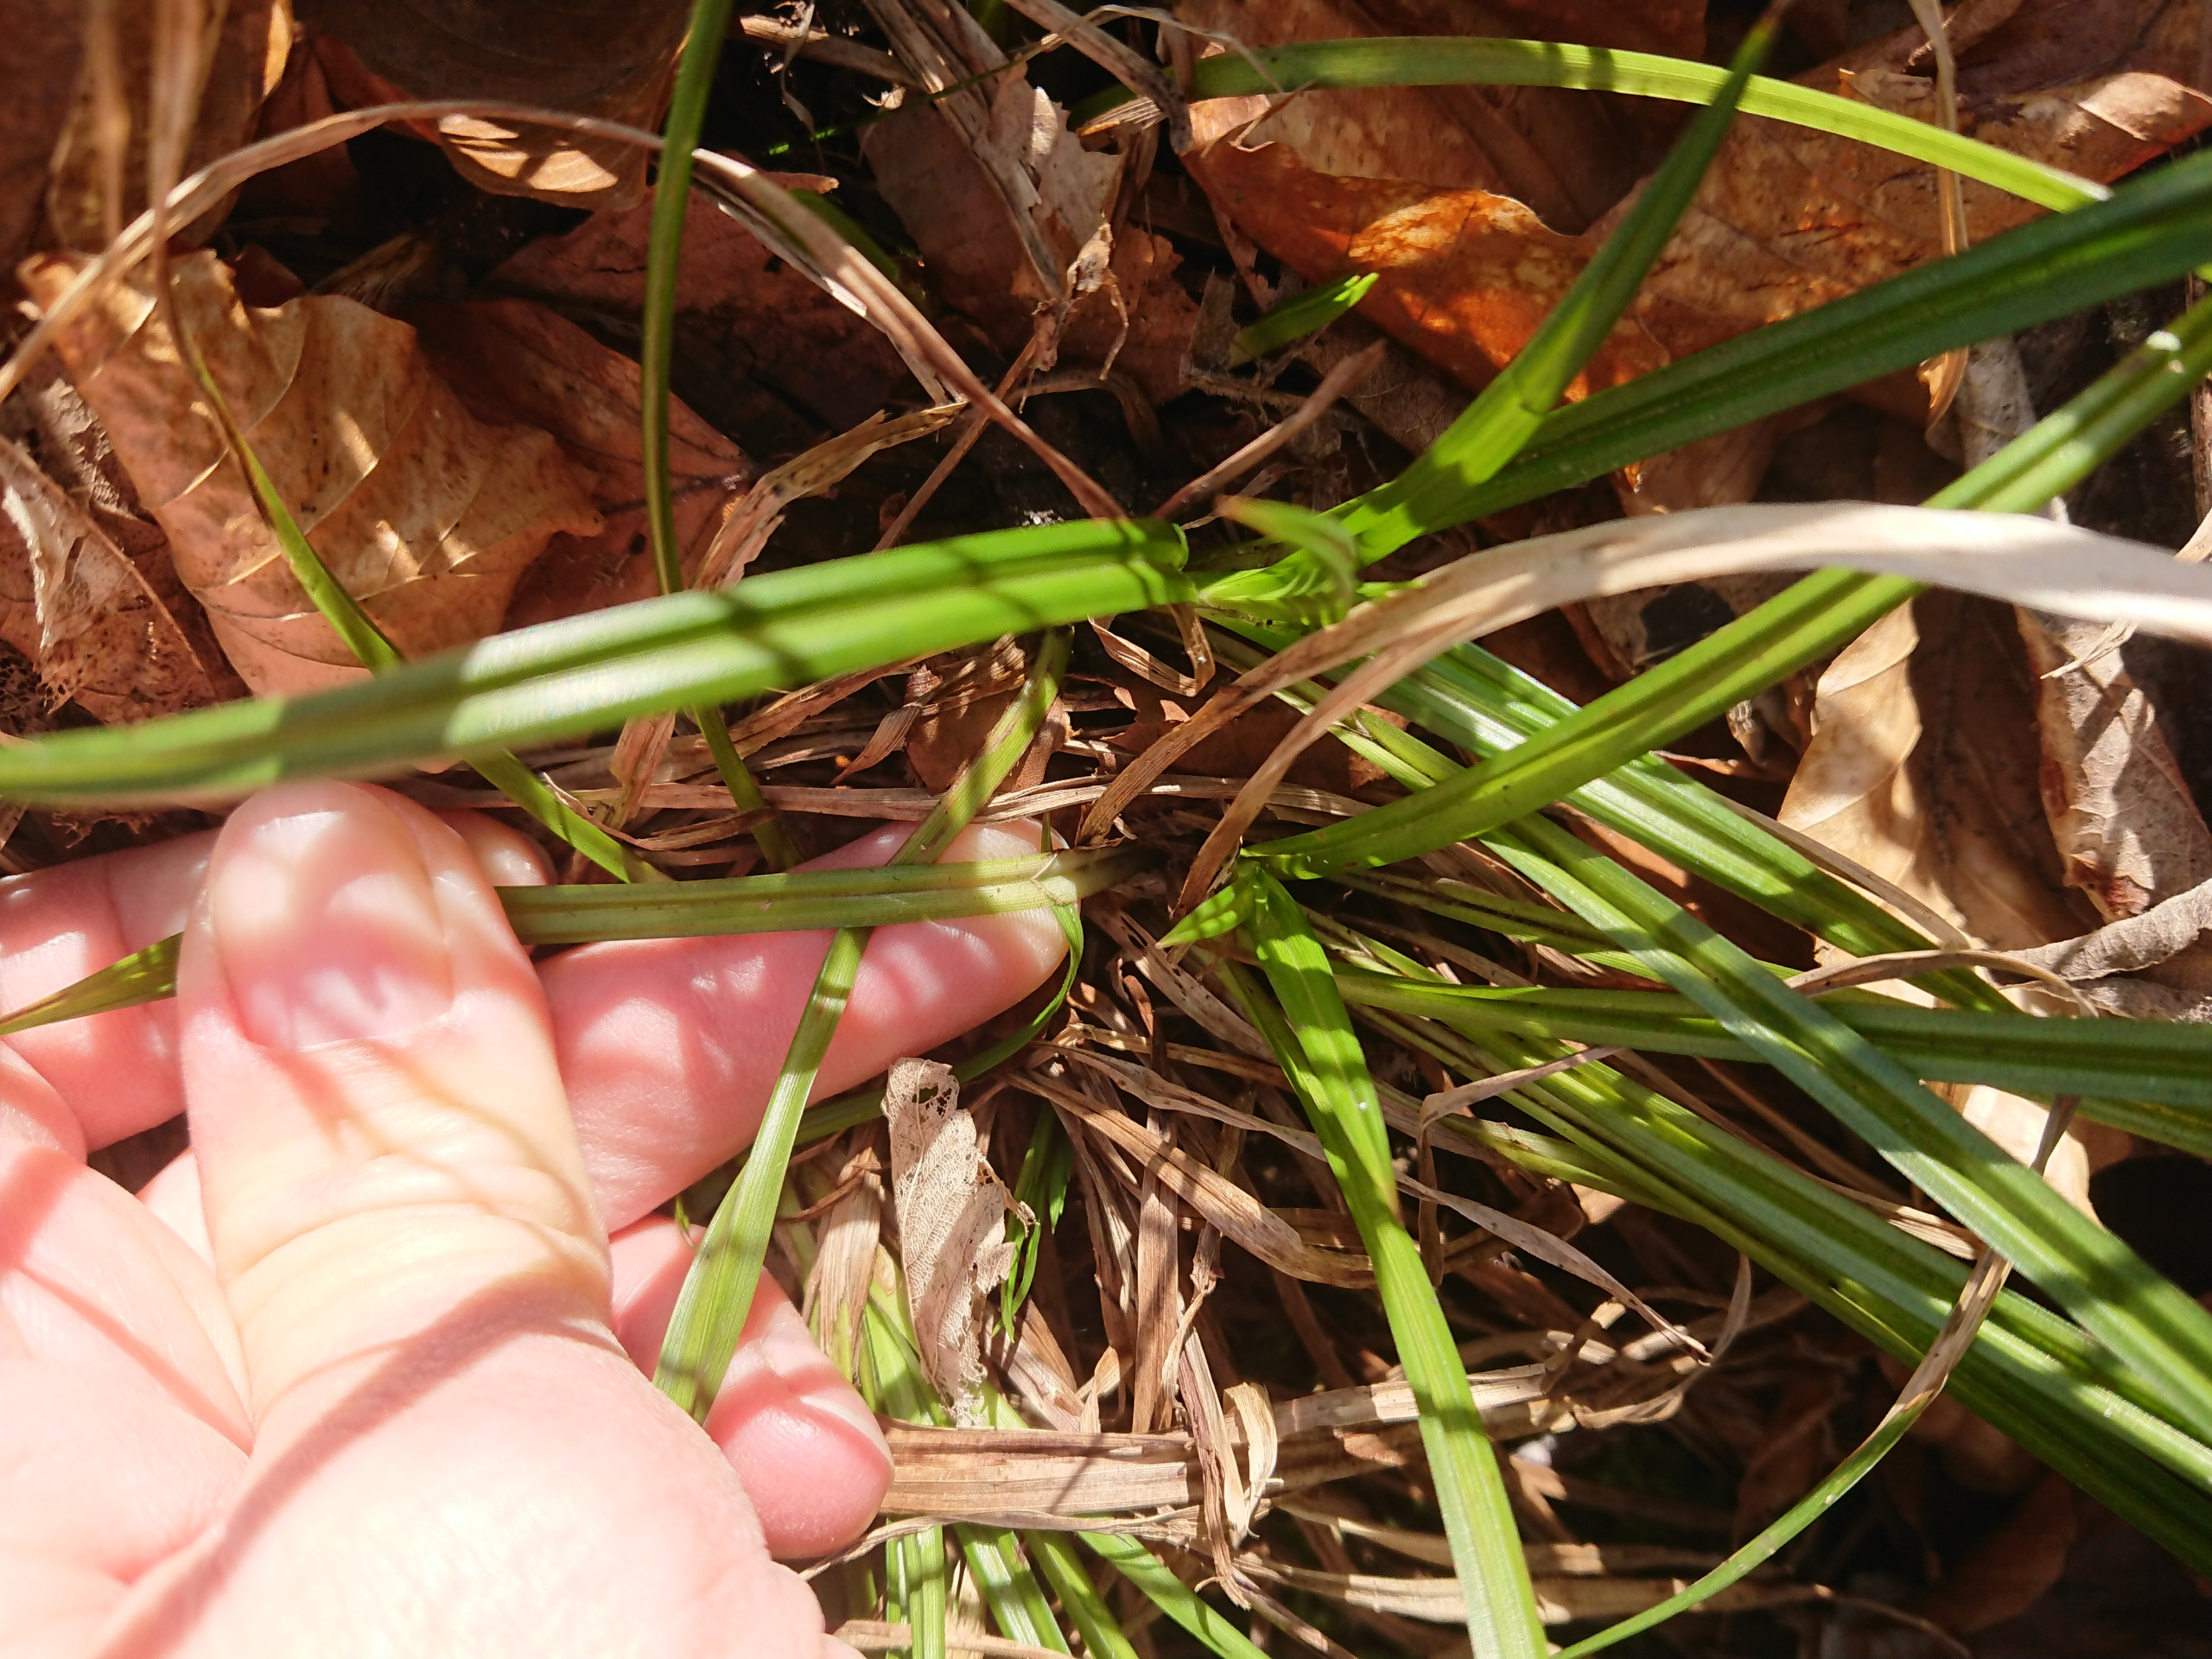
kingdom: Plantae
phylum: Tracheophyta
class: Liliopsida
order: Poales
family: Cyperaceae
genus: Carex
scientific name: Carex sylvatica
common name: Skov-star
